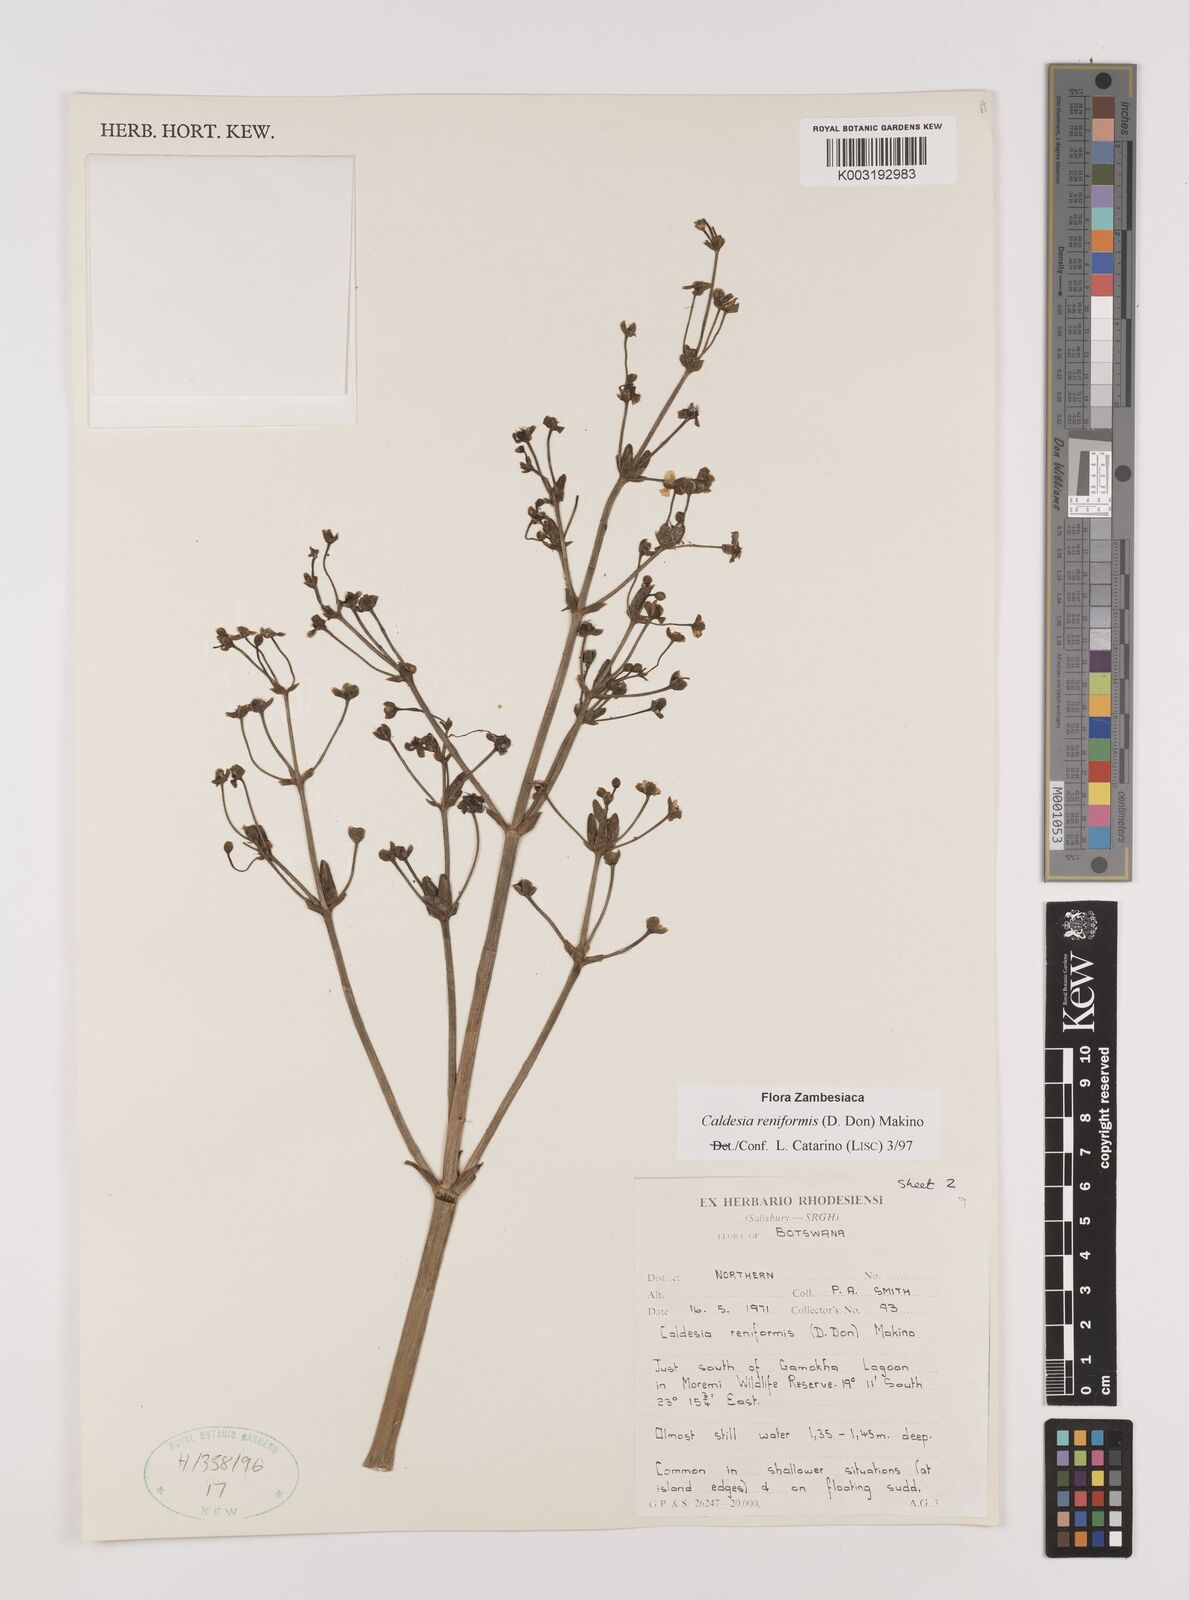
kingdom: Plantae
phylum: Tracheophyta
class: Liliopsida
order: Alismatales
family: Alismataceae
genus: Caldesia
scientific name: Caldesia parnassifolia
